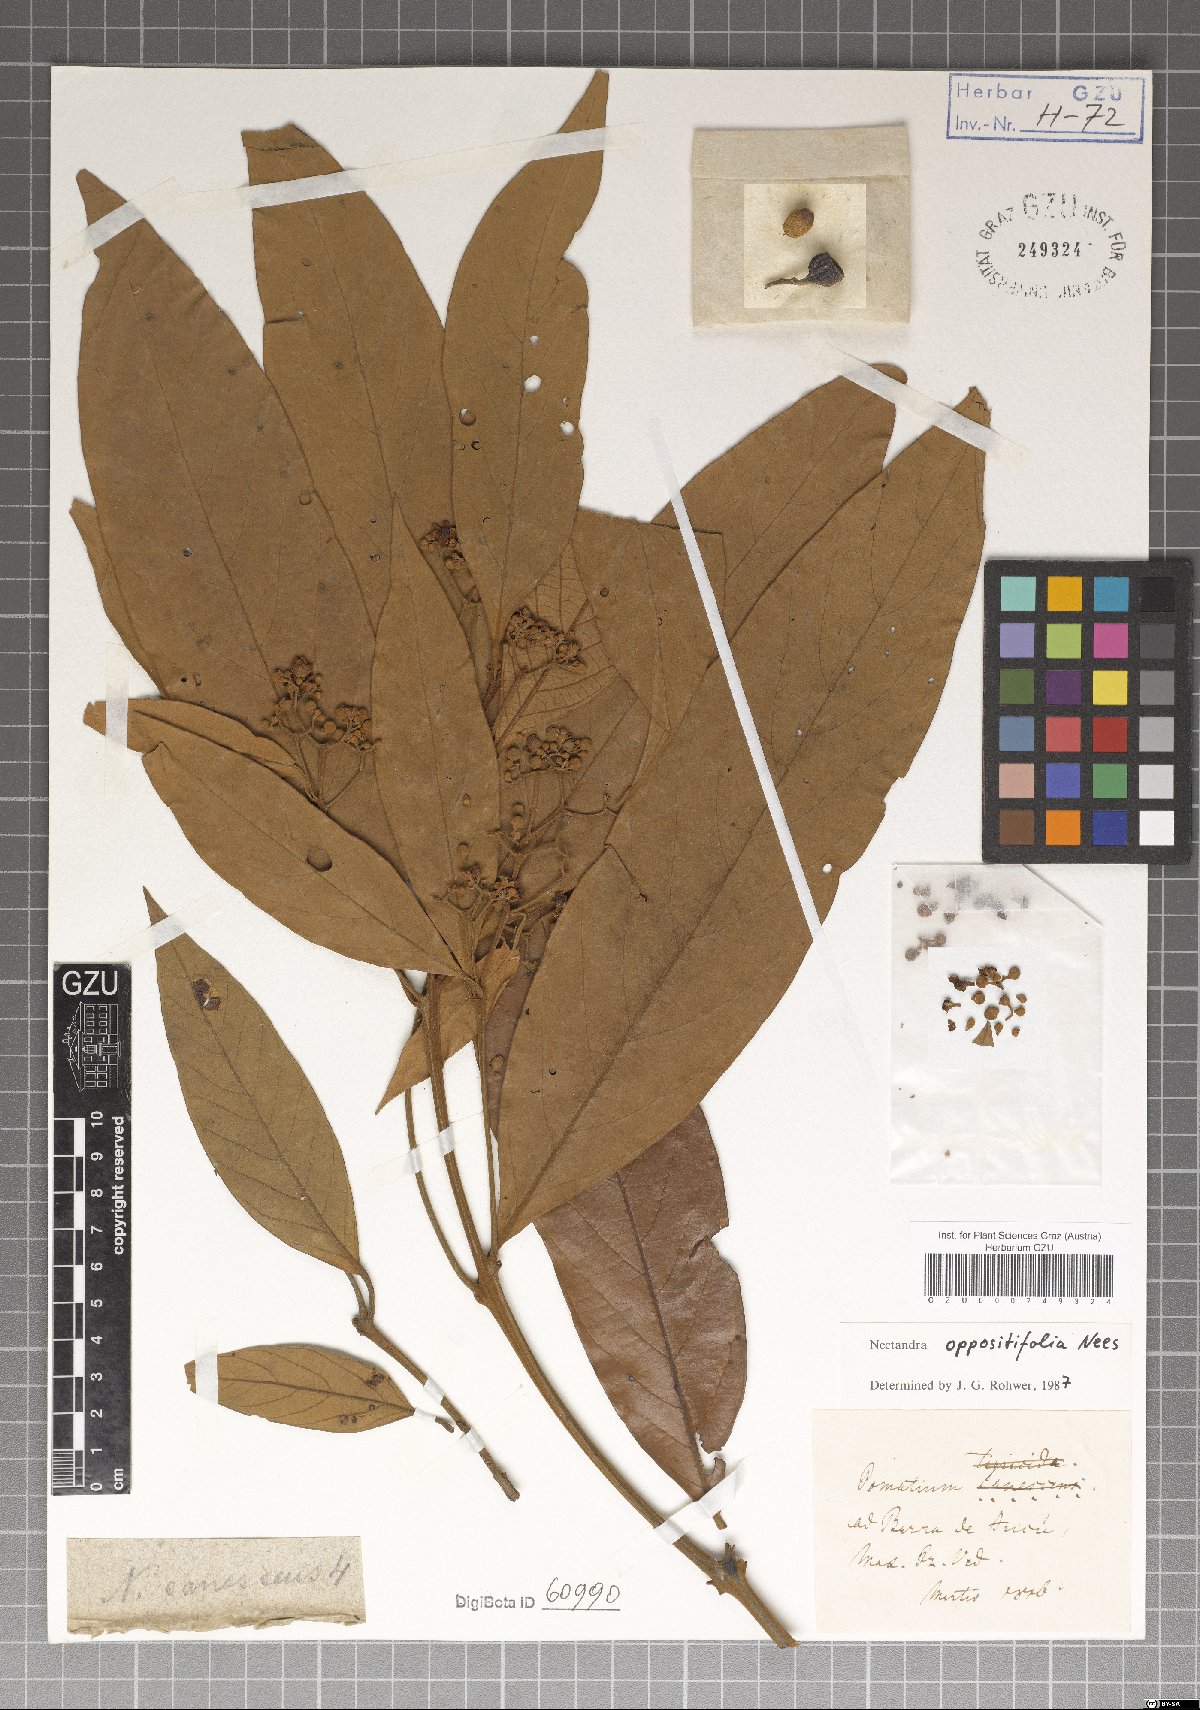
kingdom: Plantae
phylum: Tracheophyta
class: Magnoliopsida
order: Laurales
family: Lauraceae
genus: Nectandra
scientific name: Nectandra oppositifolia
